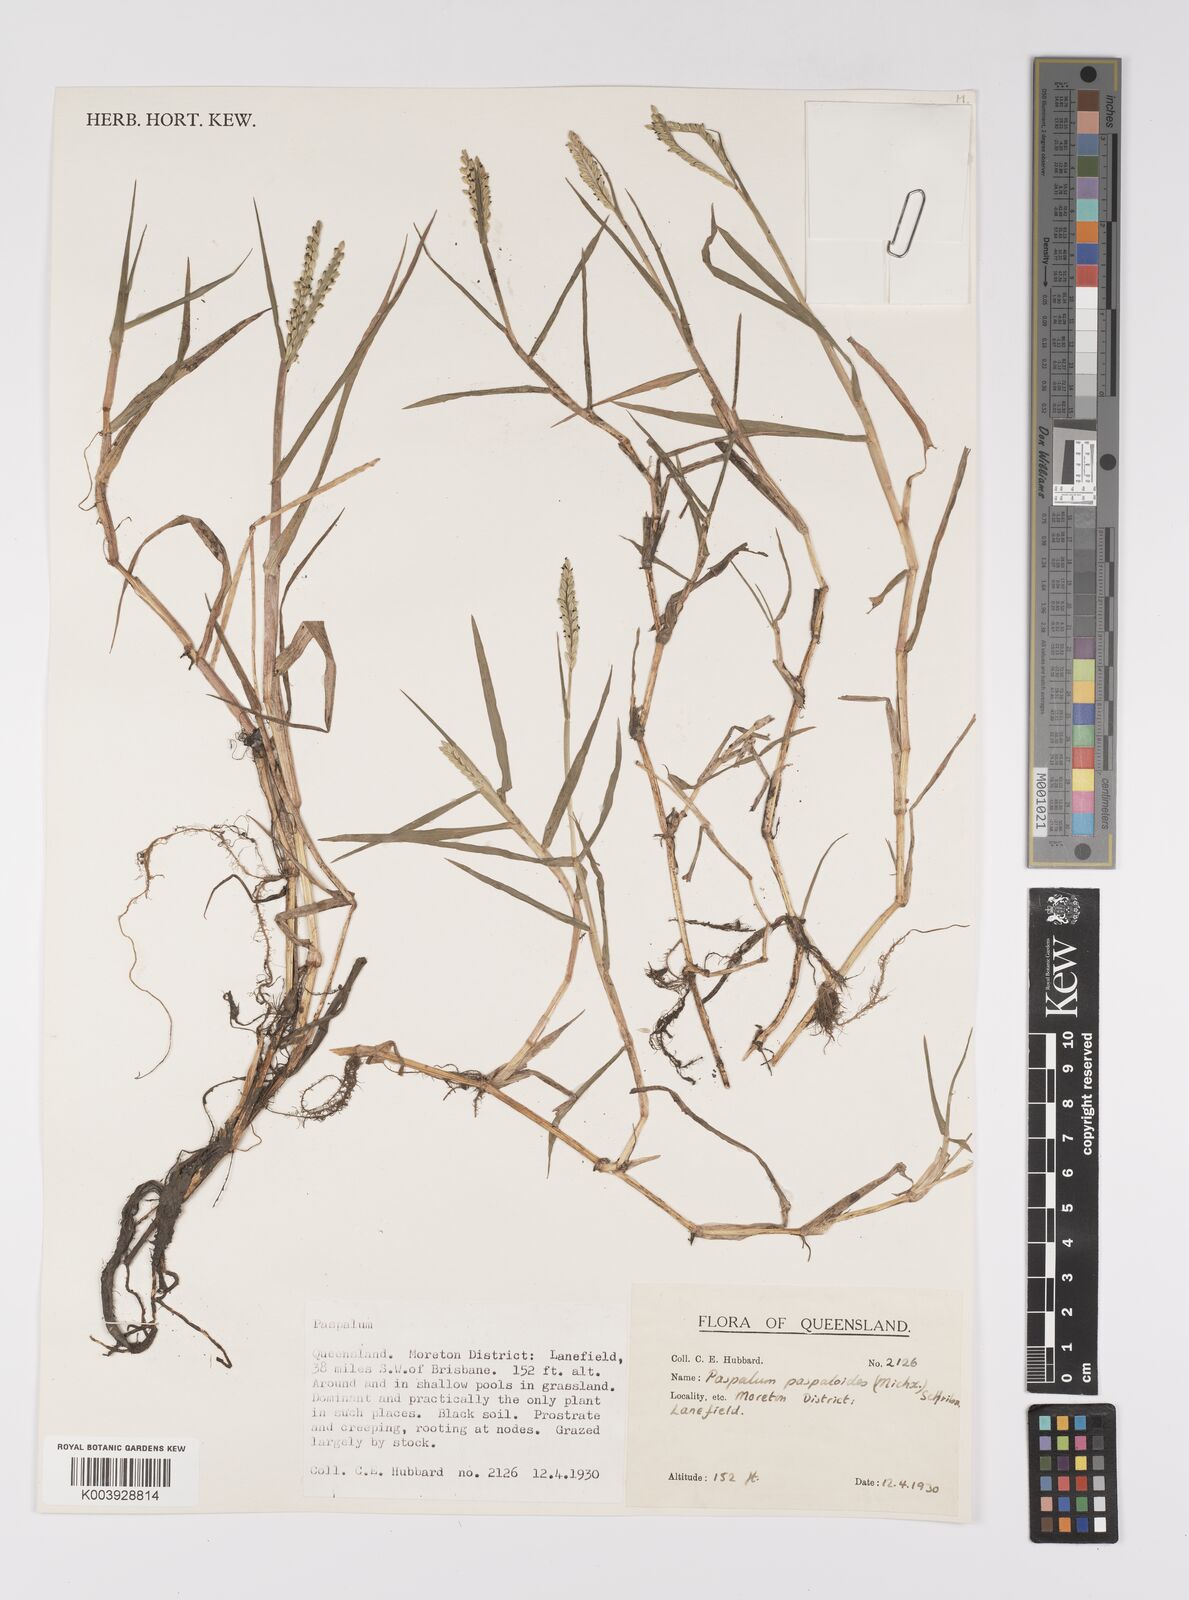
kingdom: Plantae
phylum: Tracheophyta
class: Liliopsida
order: Poales
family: Poaceae
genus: Paspalum
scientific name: Paspalum distichum
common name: Knotgrass
